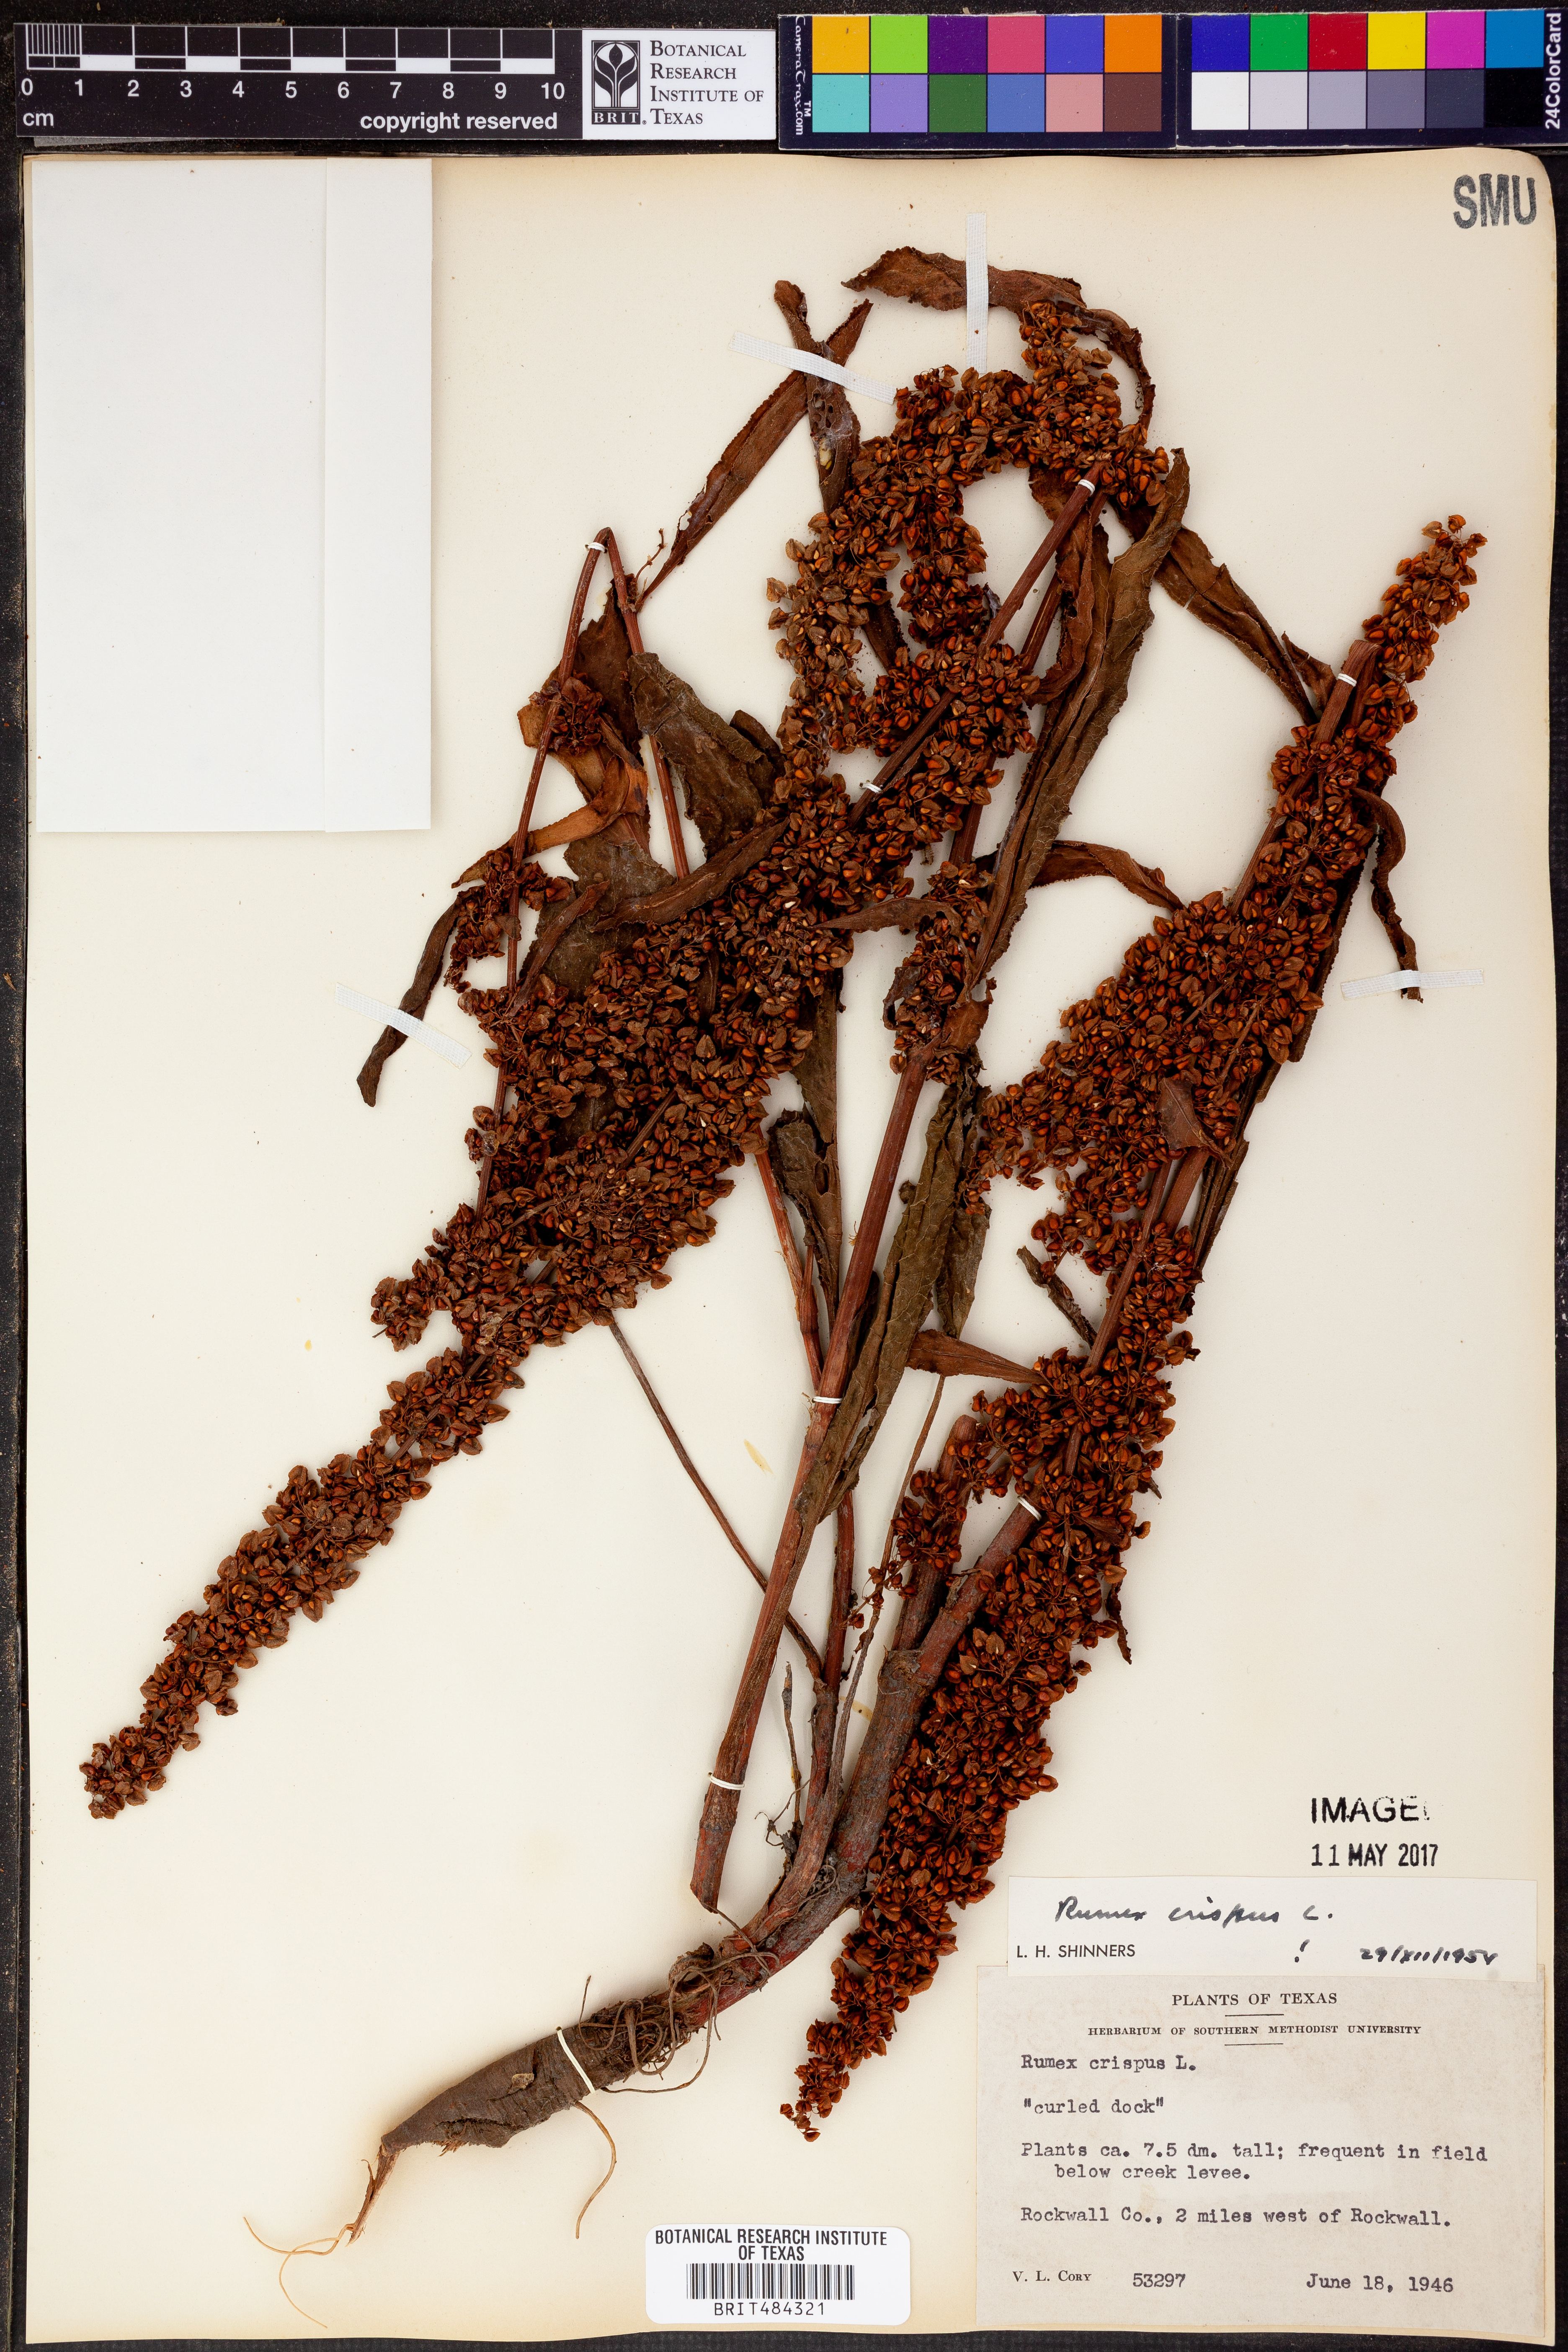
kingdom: Plantae
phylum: Tracheophyta
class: Magnoliopsida
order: Caryophyllales
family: Polygonaceae
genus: Rumex
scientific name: Rumex crispus
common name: Curled dock
